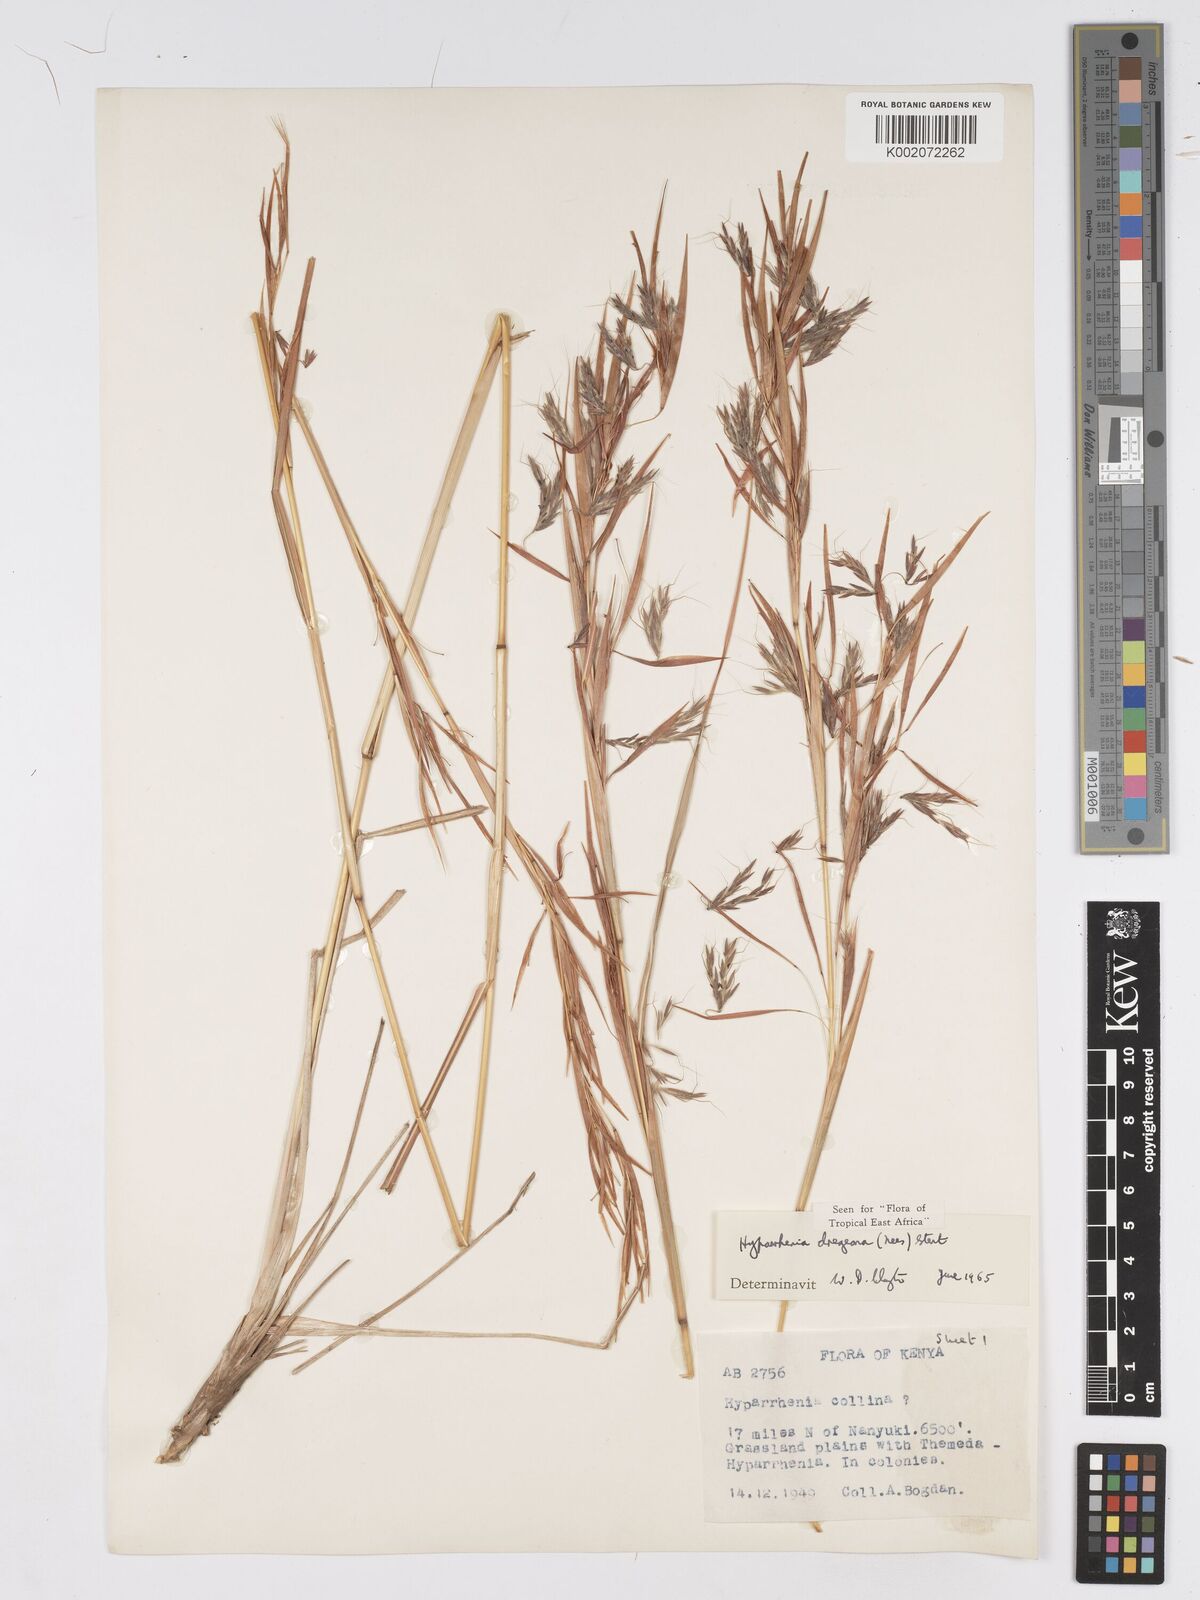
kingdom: Plantae
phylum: Tracheophyta
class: Liliopsida
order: Poales
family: Poaceae
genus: Hyparrhenia
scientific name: Hyparrhenia dregeana
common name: Silky thatching grass
